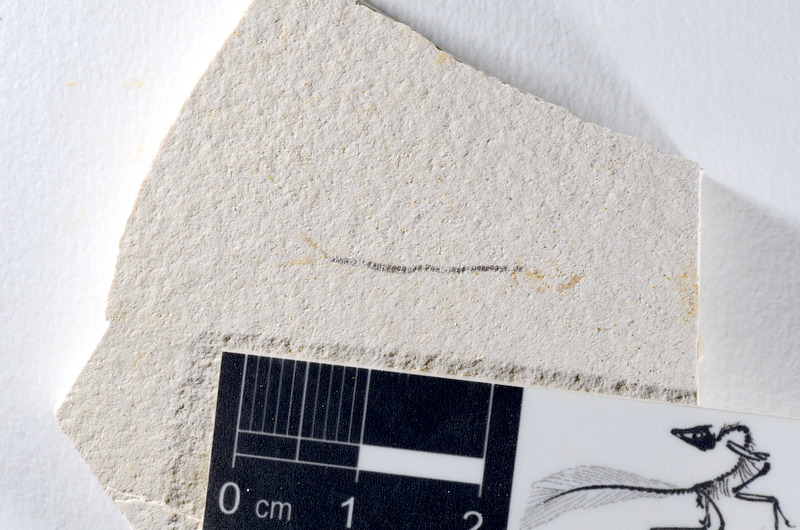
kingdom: Animalia
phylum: Chordata
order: Salmoniformes
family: Orthogonikleithridae
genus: Orthogonikleithrus
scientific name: Orthogonikleithrus hoelli
